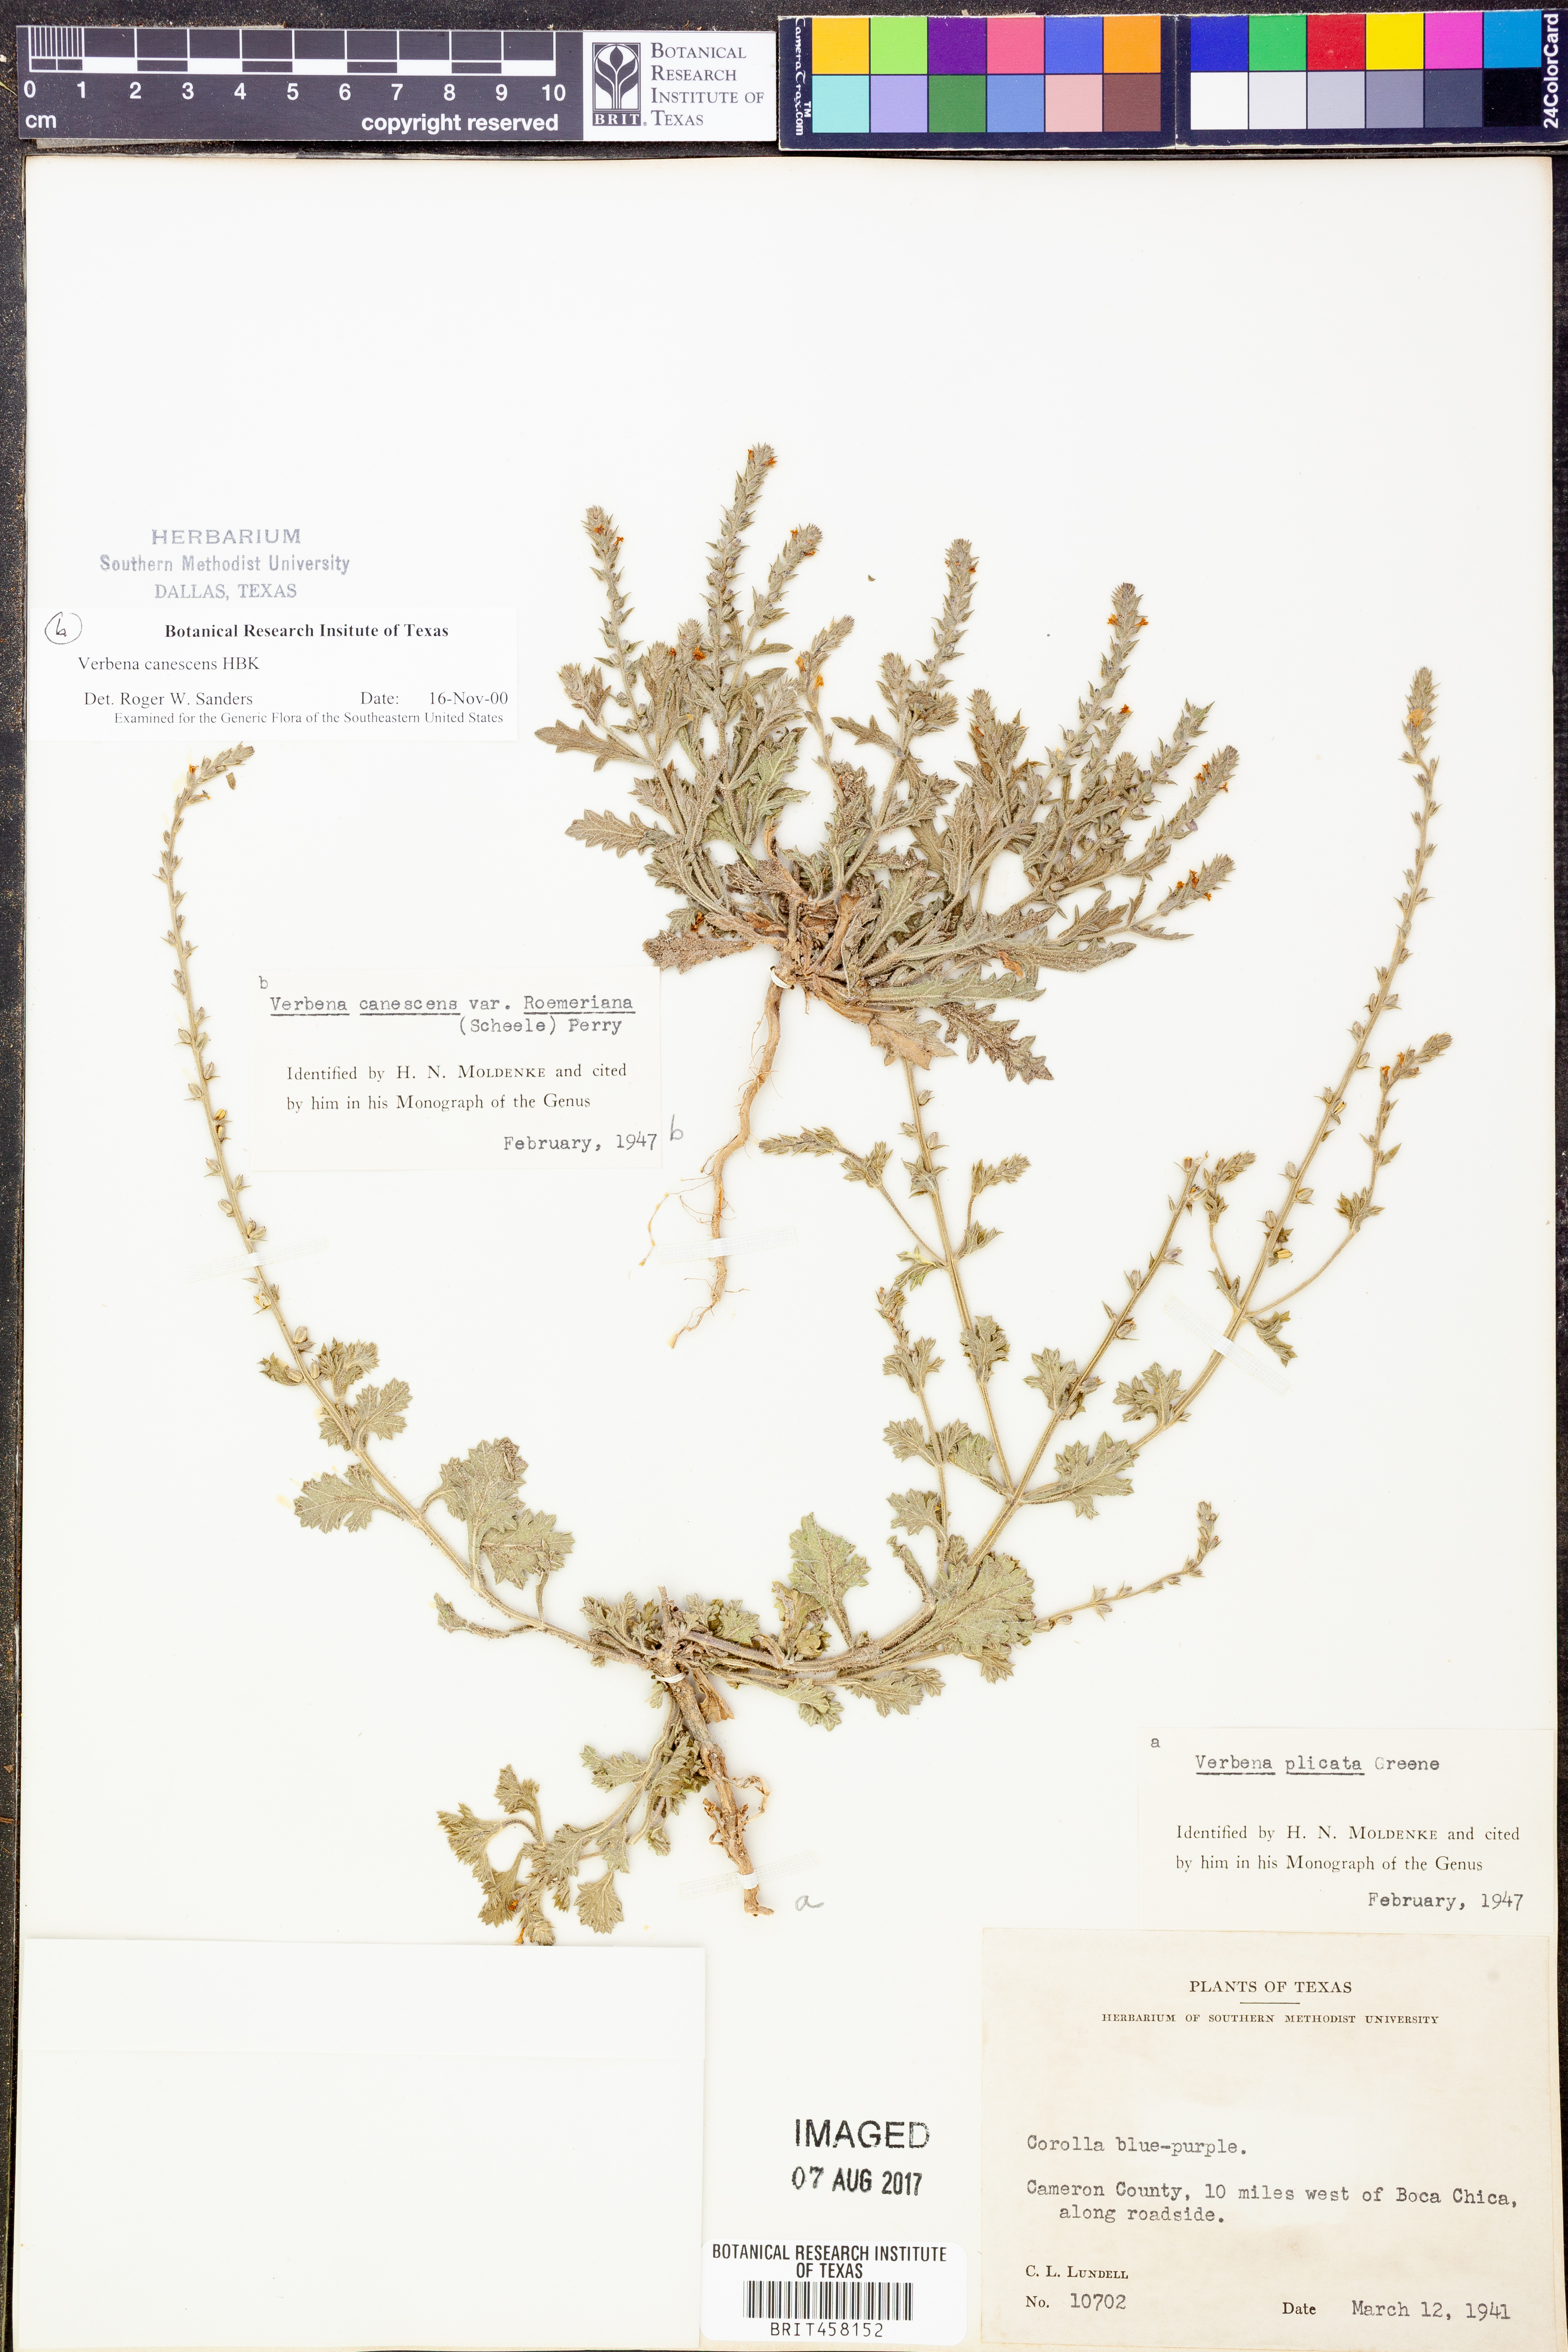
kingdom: Plantae
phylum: Tracheophyta
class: Magnoliopsida
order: Lamiales
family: Verbenaceae
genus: Verbena
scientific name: Verbena plicata
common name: Fan-leaf vervain
